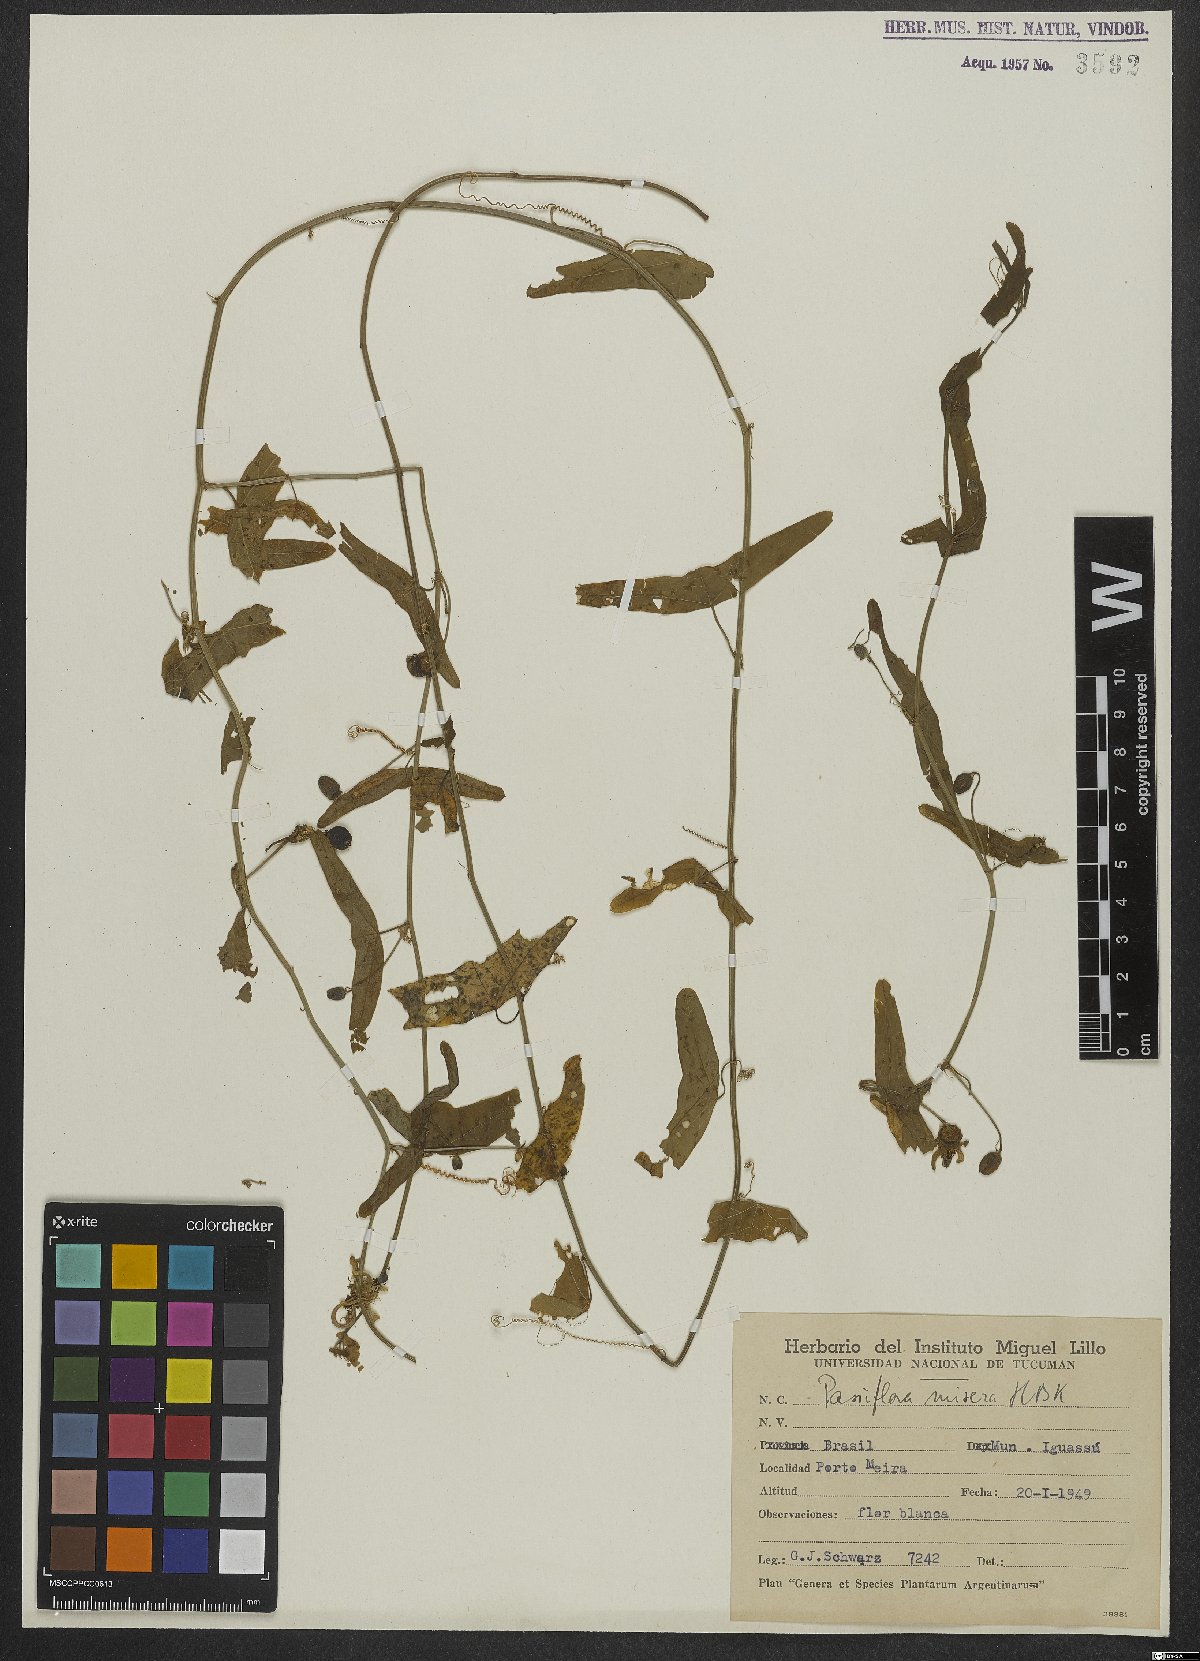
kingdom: Plantae
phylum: Tracheophyta
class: Magnoliopsida
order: Malpighiales
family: Passifloraceae
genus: Passiflora
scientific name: Passiflora misera
